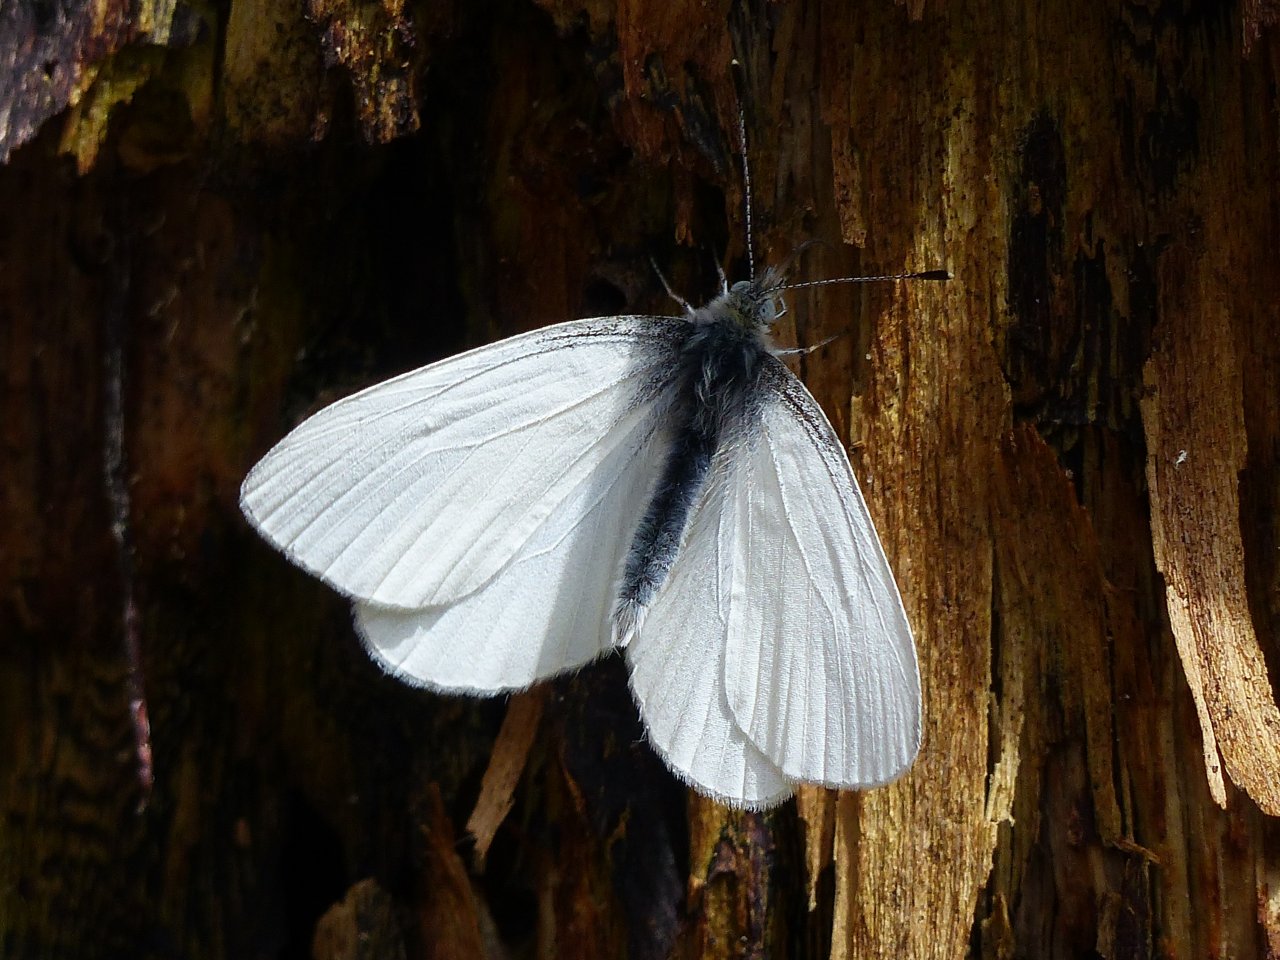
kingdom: Animalia
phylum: Arthropoda
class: Insecta
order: Lepidoptera
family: Pieridae
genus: Pieris
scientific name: Pieris virginiensis
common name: West Virginia White
